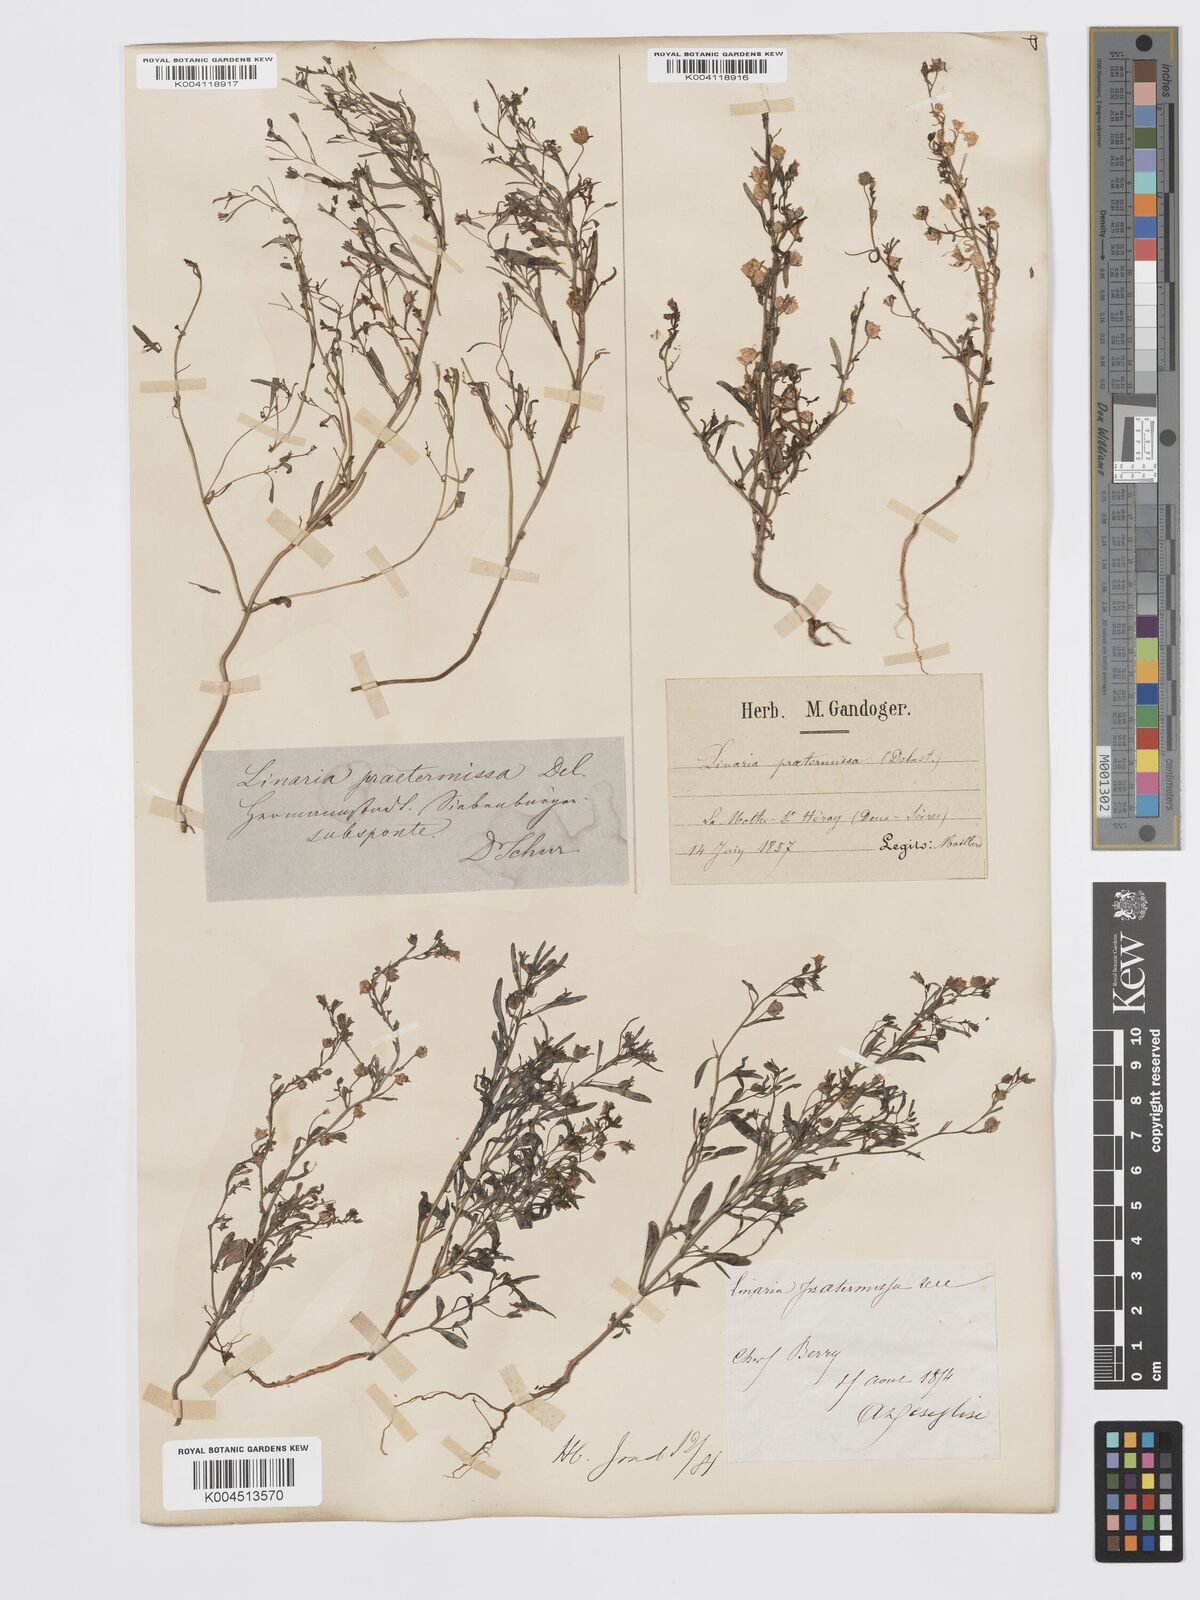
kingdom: Plantae
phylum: Tracheophyta
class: Magnoliopsida
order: Lamiales
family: Plantaginaceae
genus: Chaenorhinum
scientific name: Chaenorhinum minus
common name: Dwarf snapdragon
